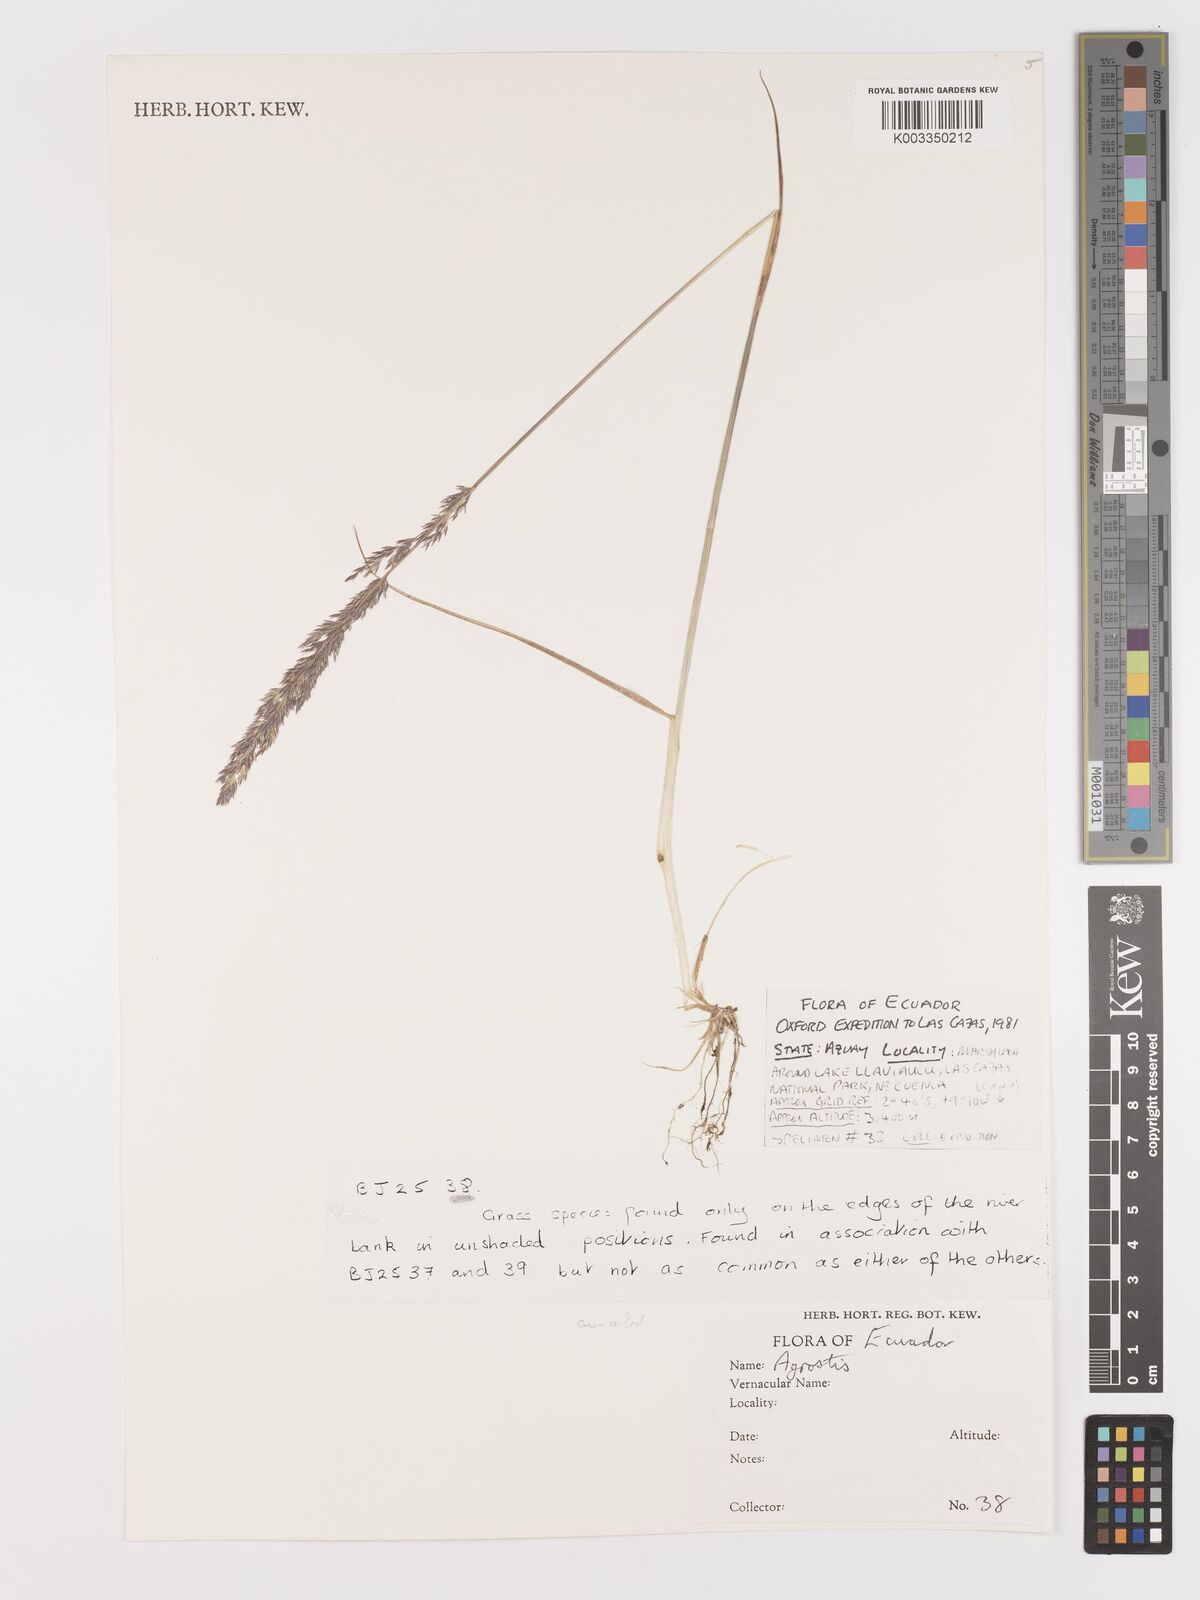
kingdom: Plantae
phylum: Tracheophyta
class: Liliopsida
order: Poales
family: Poaceae
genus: Agrostis
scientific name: Agrostis
